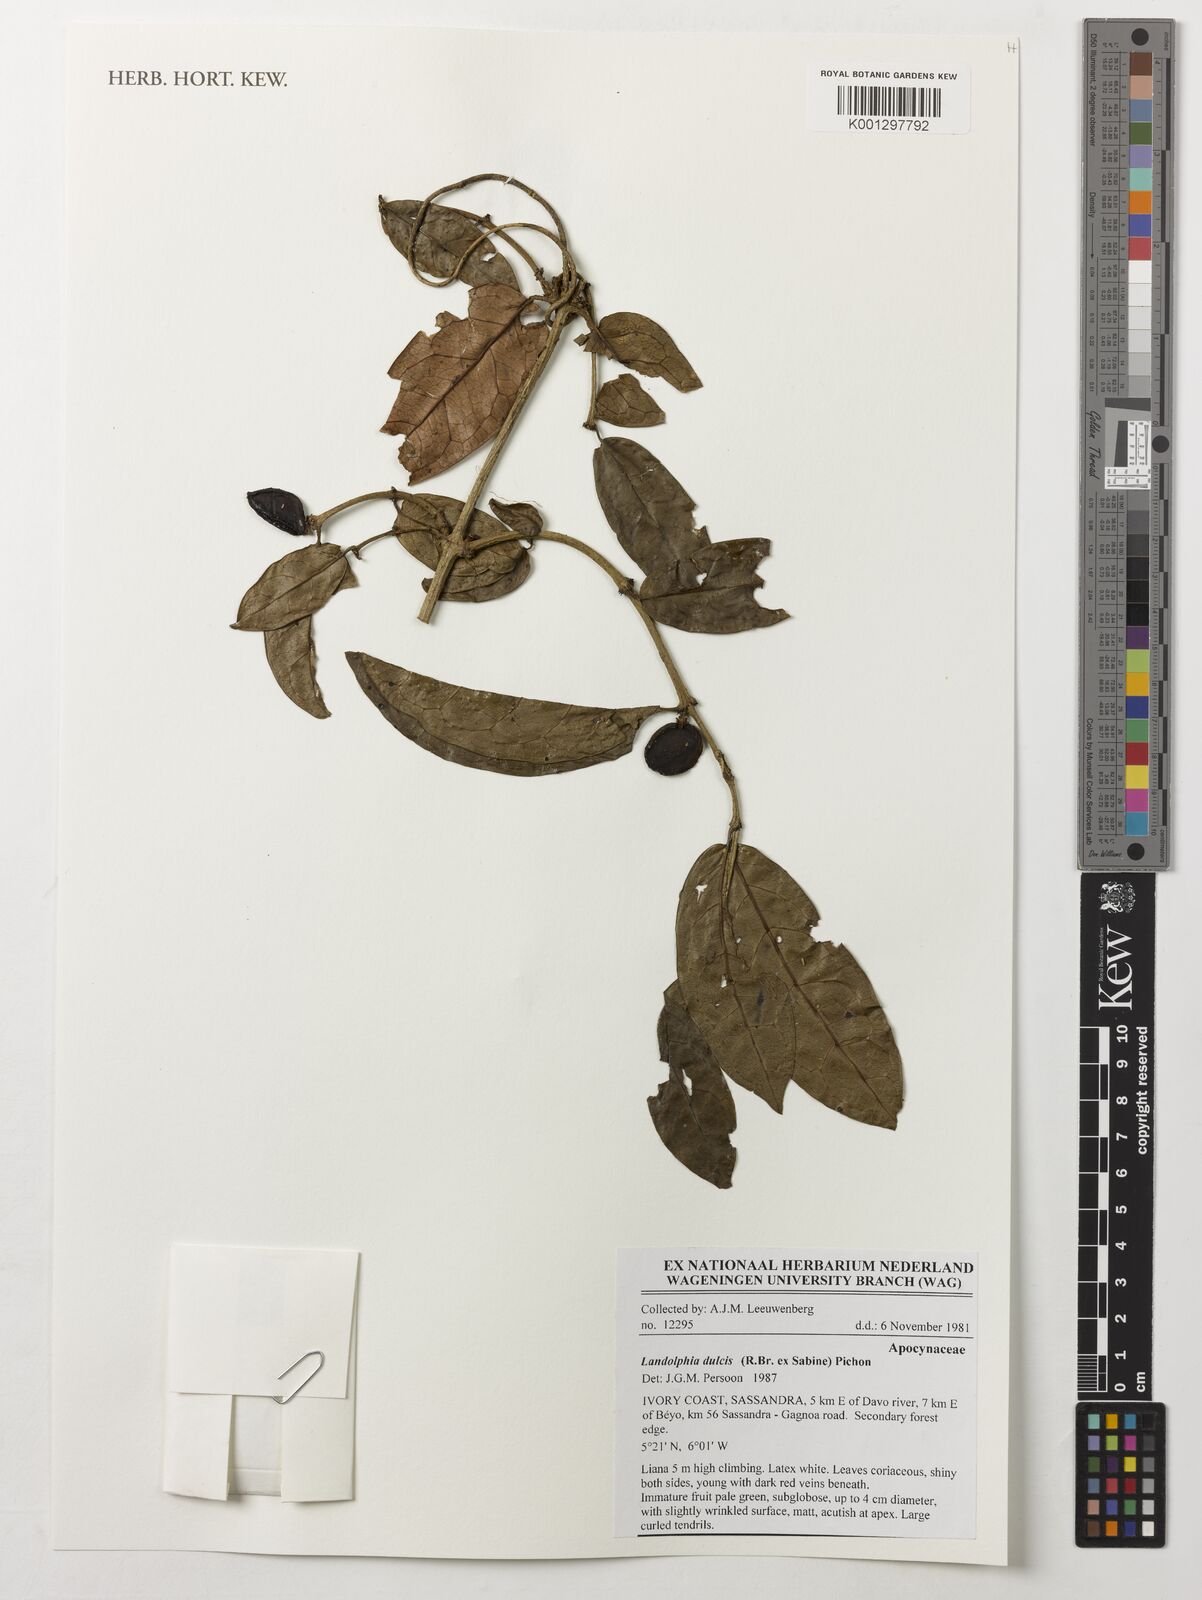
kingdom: Plantae
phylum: Tracheophyta
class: Magnoliopsida
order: Gentianales
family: Apocynaceae
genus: Landolphia
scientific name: Landolphia dulcis
